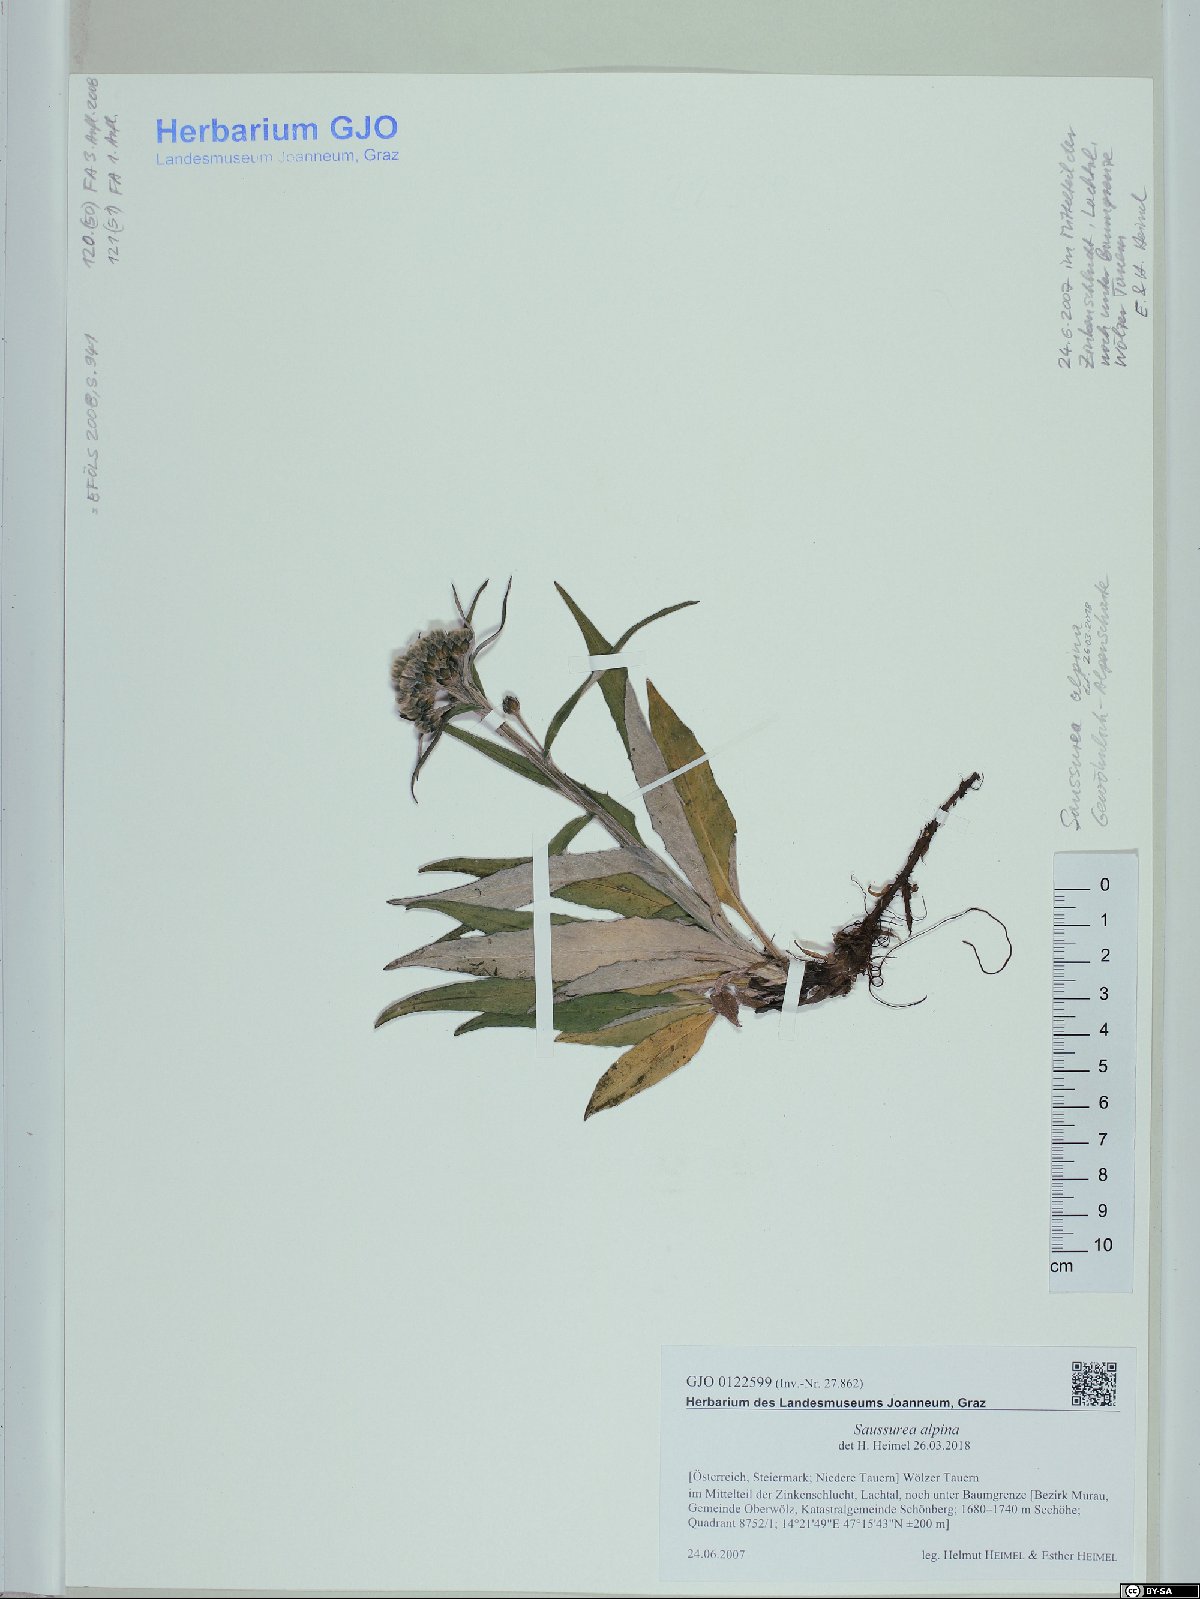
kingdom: Plantae
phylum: Tracheophyta
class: Magnoliopsida
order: Asterales
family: Asteraceae
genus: Saussurea
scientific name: Saussurea alpina
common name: Alpine saw-wort
